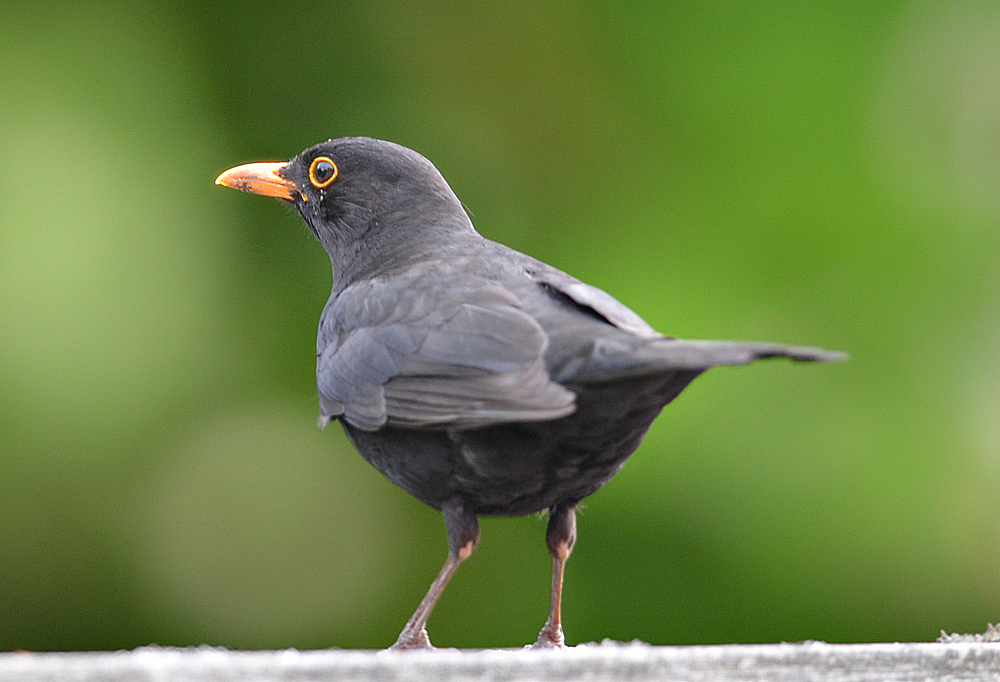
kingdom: Animalia
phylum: Chordata
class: Aves
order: Passeriformes
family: Turdidae
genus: Turdus
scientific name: Turdus merula
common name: Common blackbird
